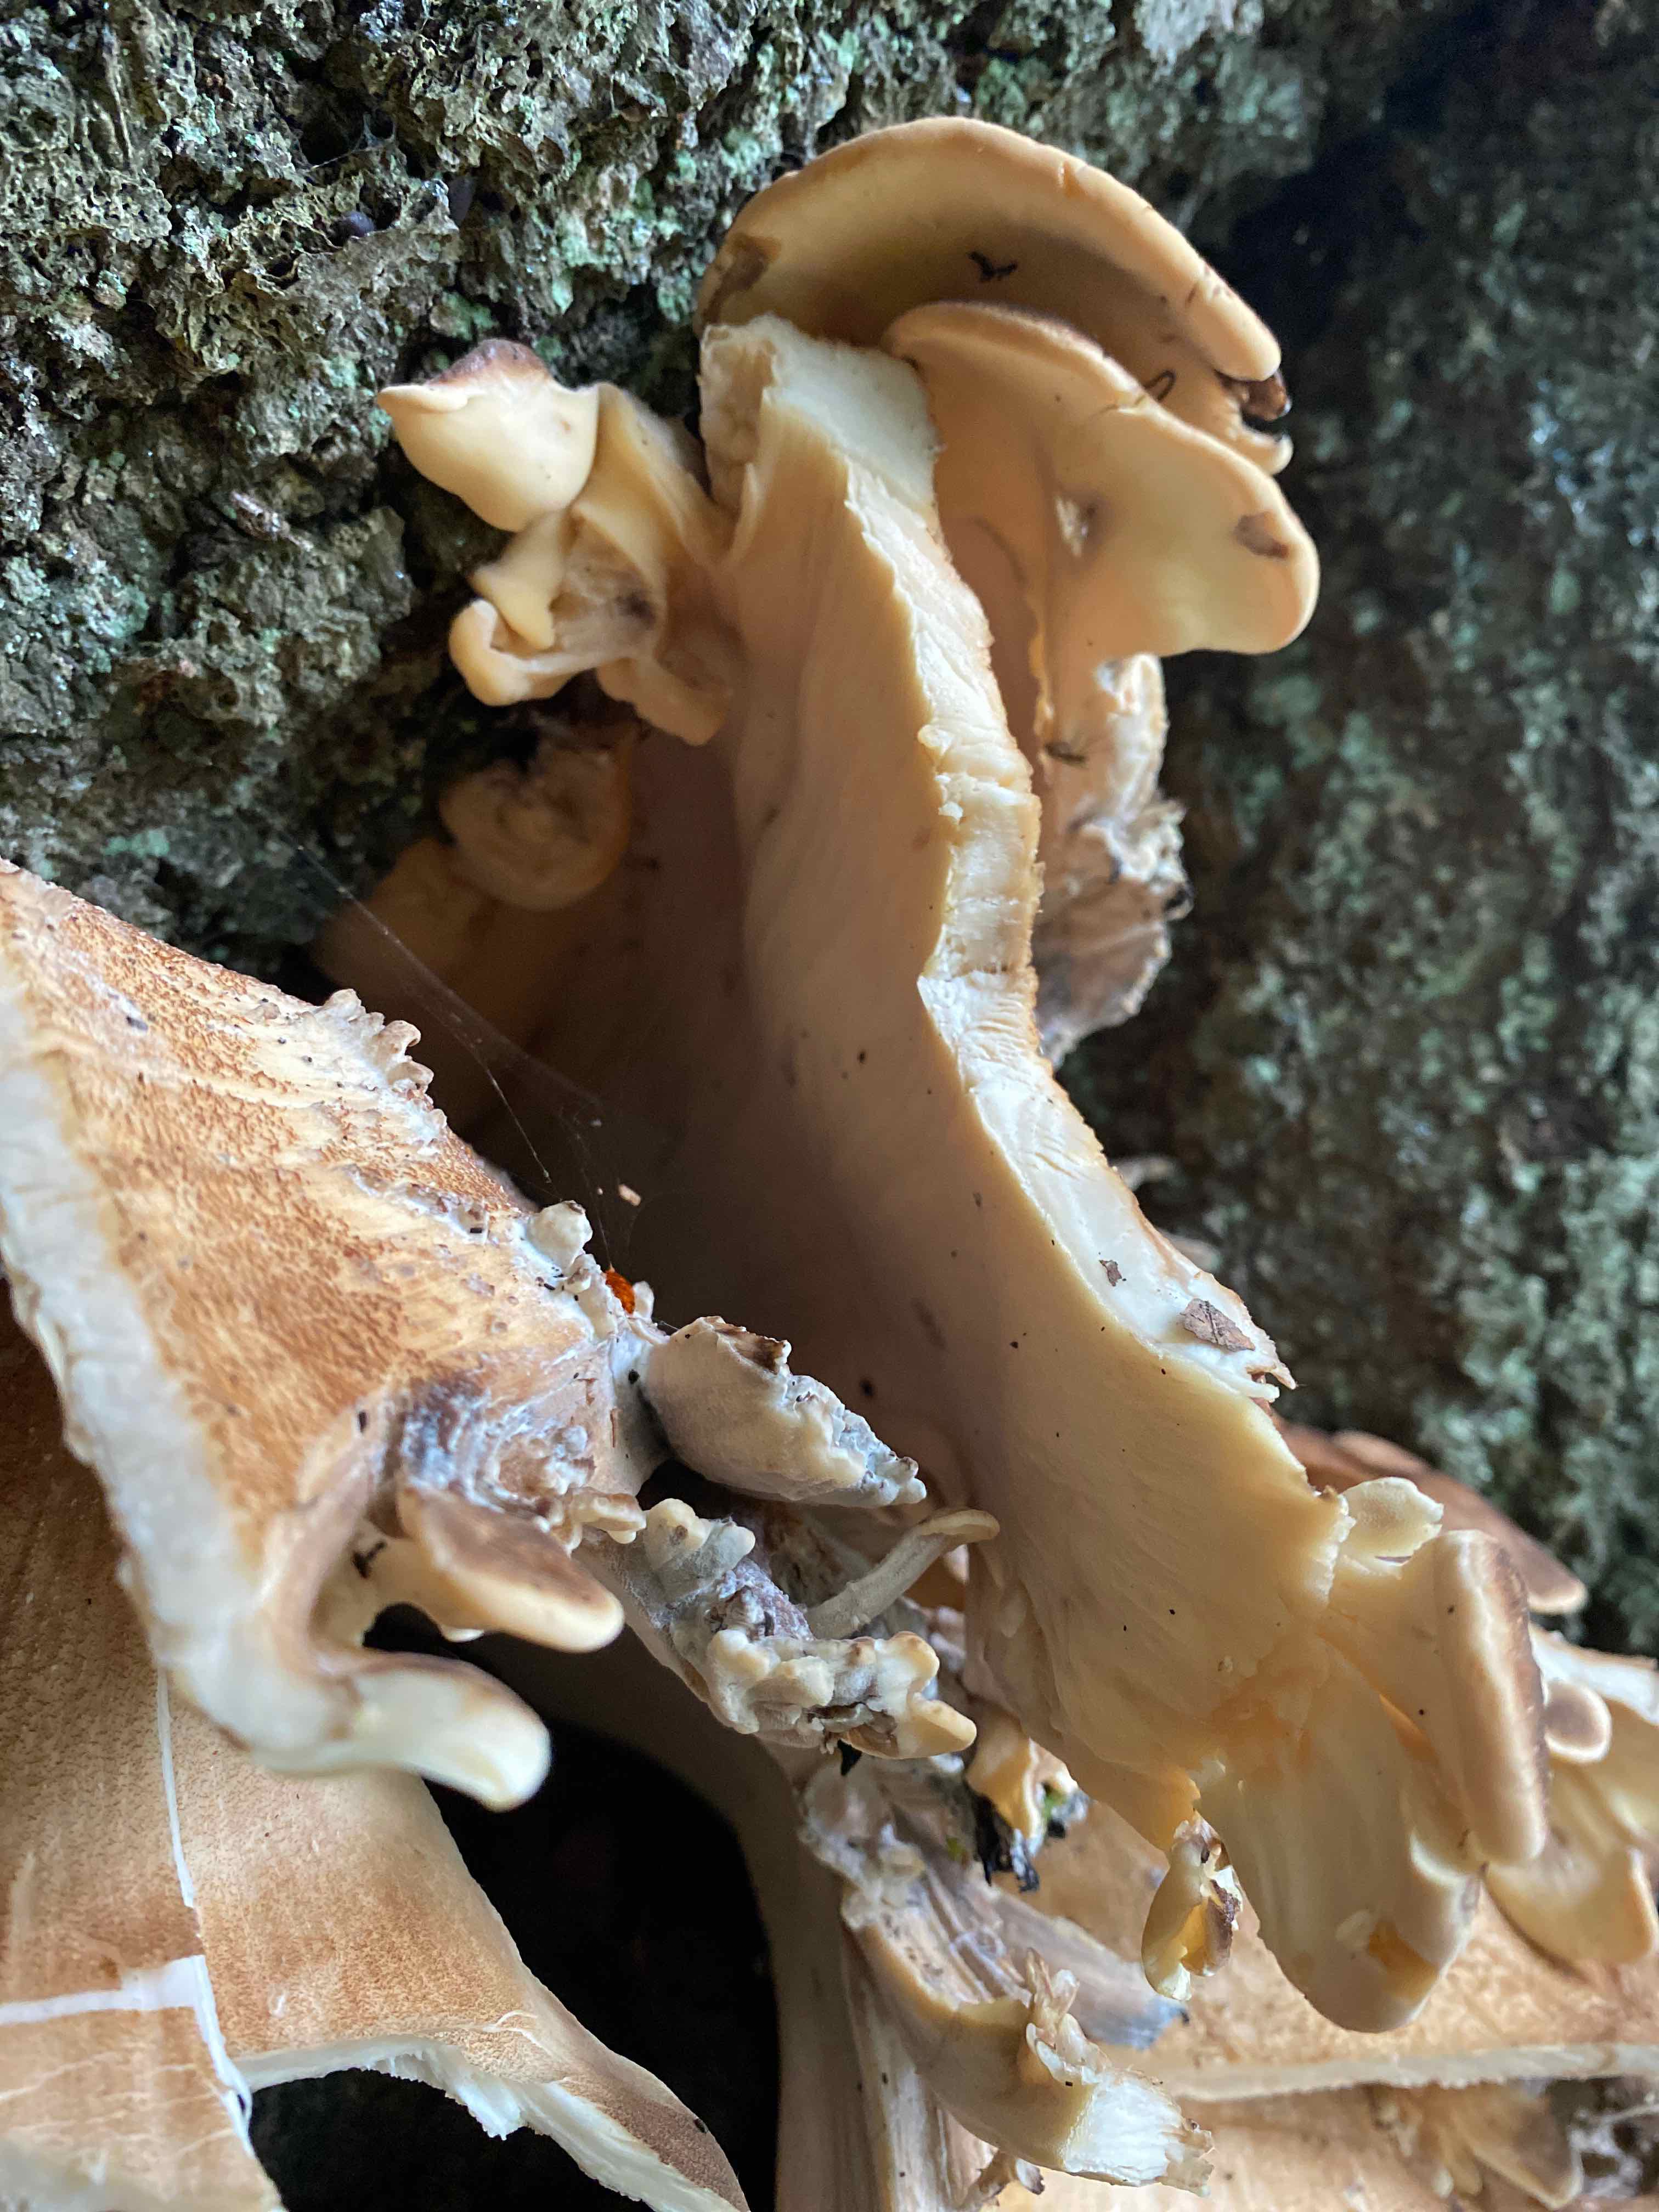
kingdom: Fungi
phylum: Basidiomycota
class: Agaricomycetes
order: Polyporales
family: Meripilaceae
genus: Meripilus
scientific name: Meripilus giganteus
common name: kæmpeporesvamp
